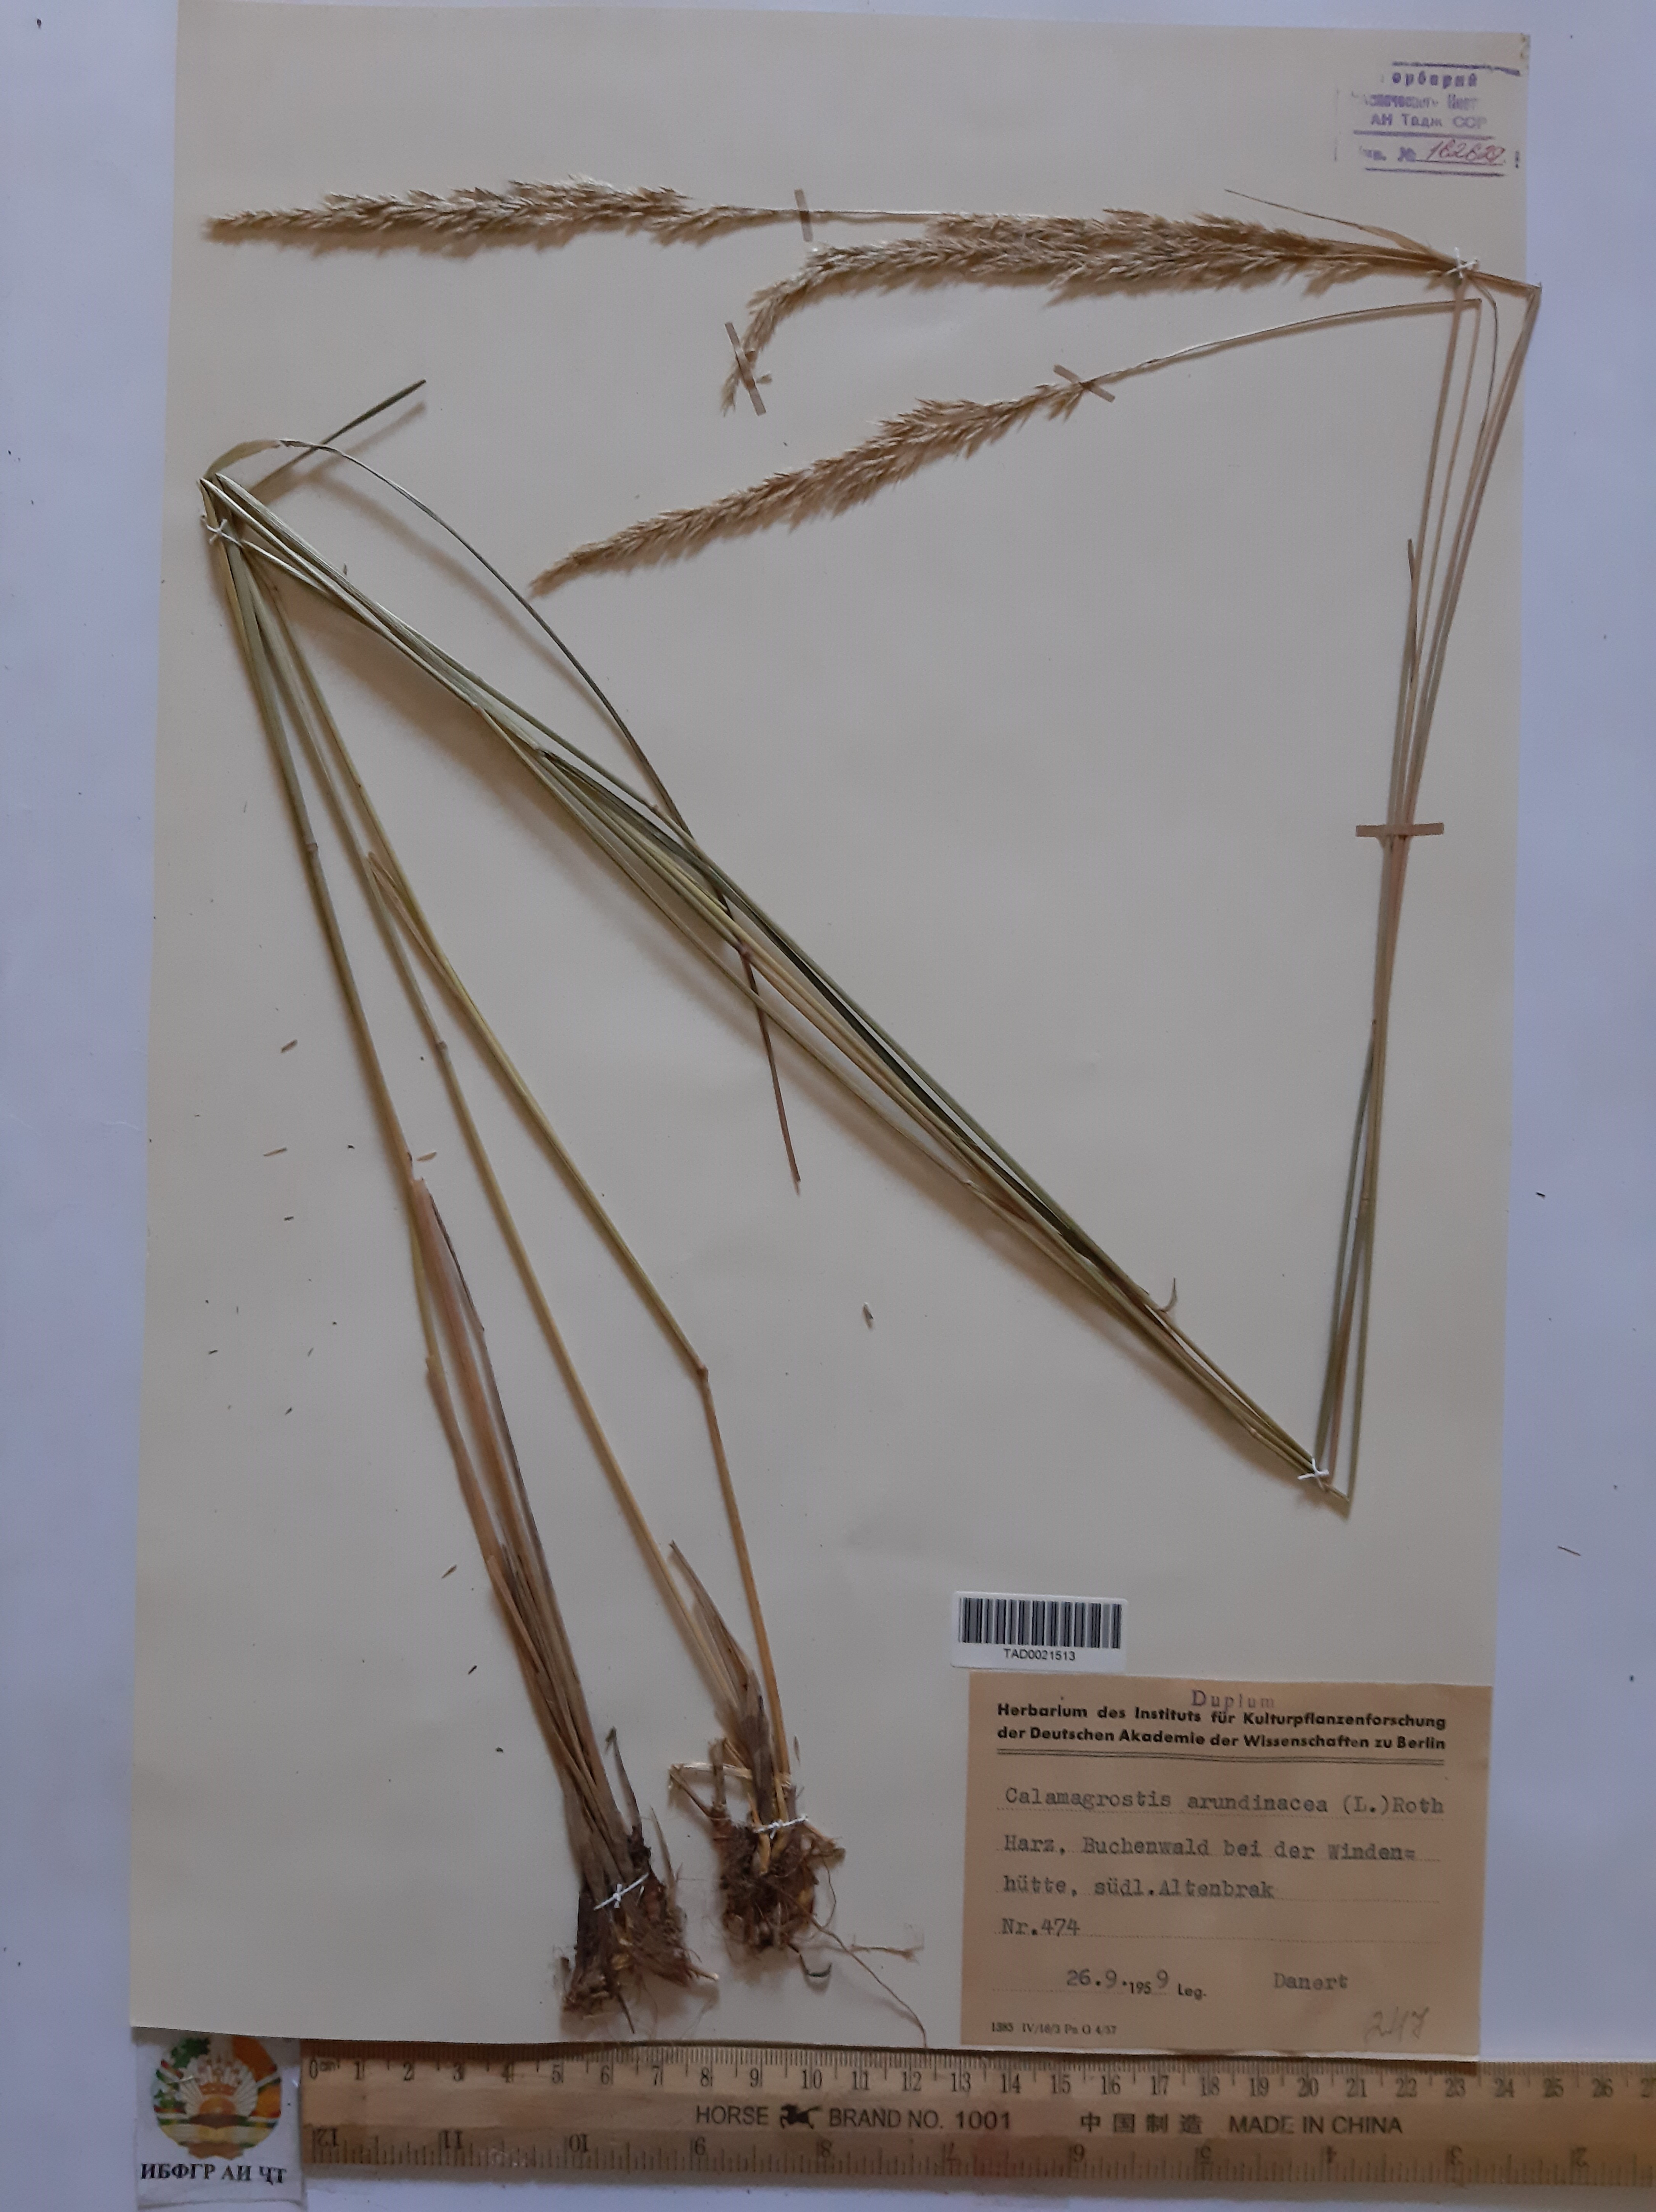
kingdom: Plantae
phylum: Tracheophyta
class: Liliopsida
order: Poales
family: Poaceae
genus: Calamagrostis
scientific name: Calamagrostis arundinacea
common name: Metskastik
